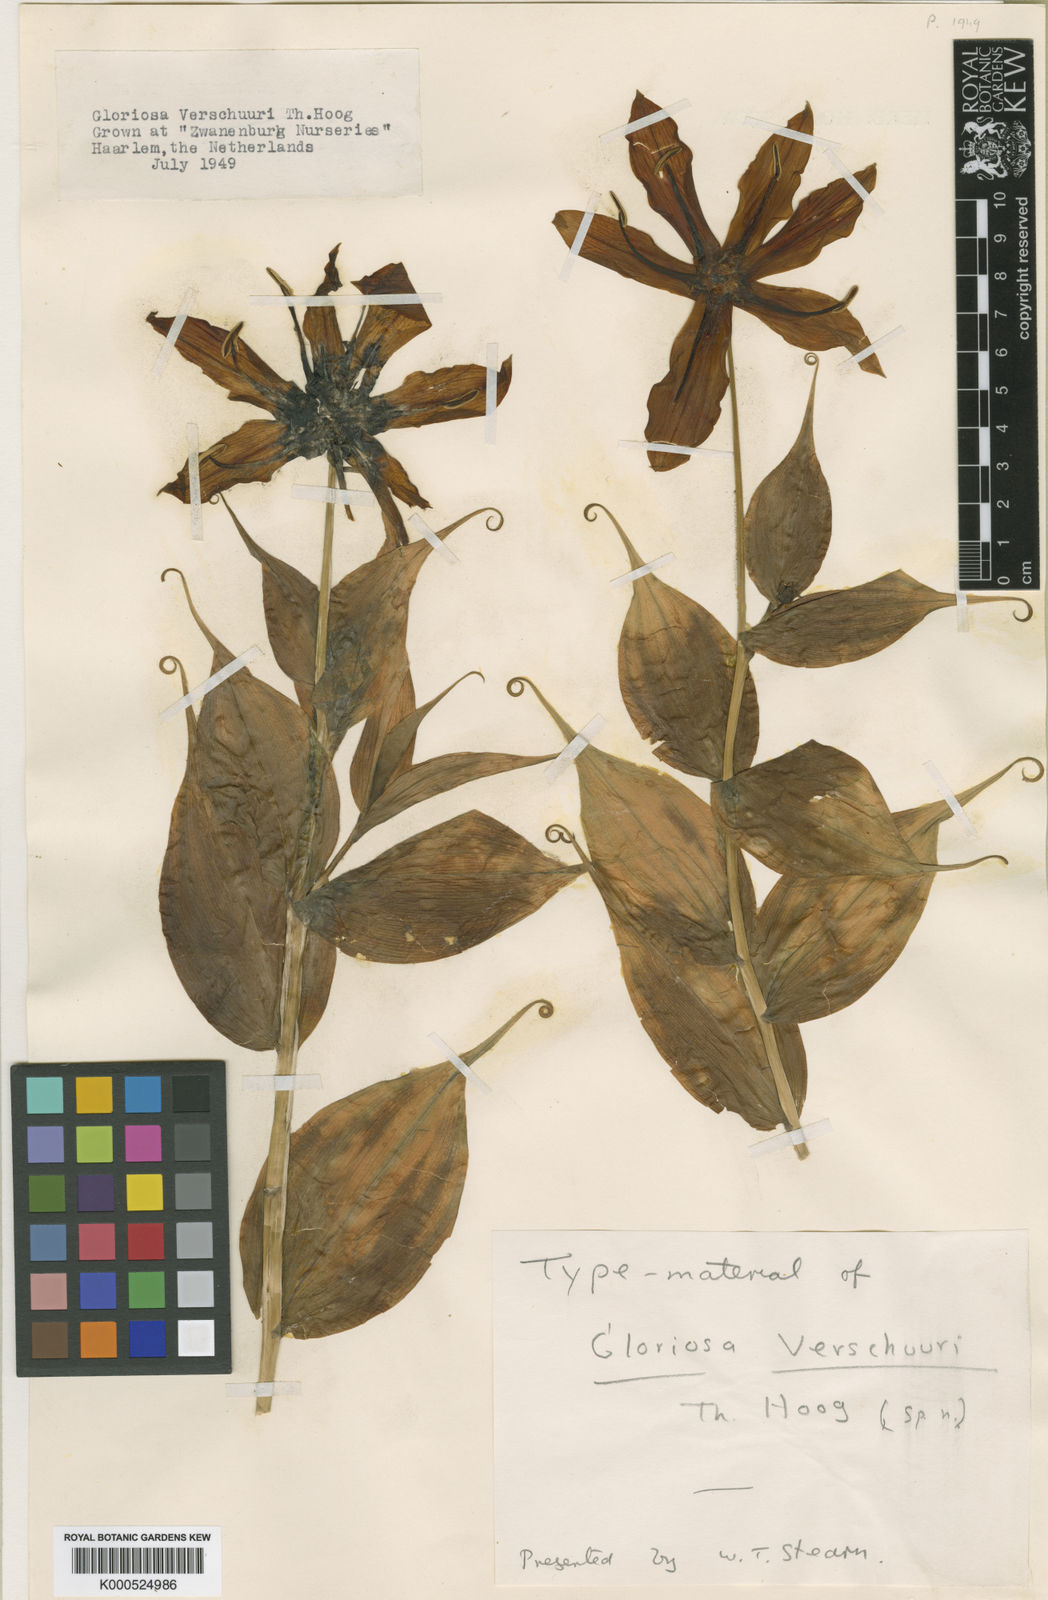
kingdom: Plantae
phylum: Tracheophyta
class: Liliopsida
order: Liliales
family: Colchicaceae
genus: Gloriosa
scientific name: Gloriosa superba
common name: Flame lily
